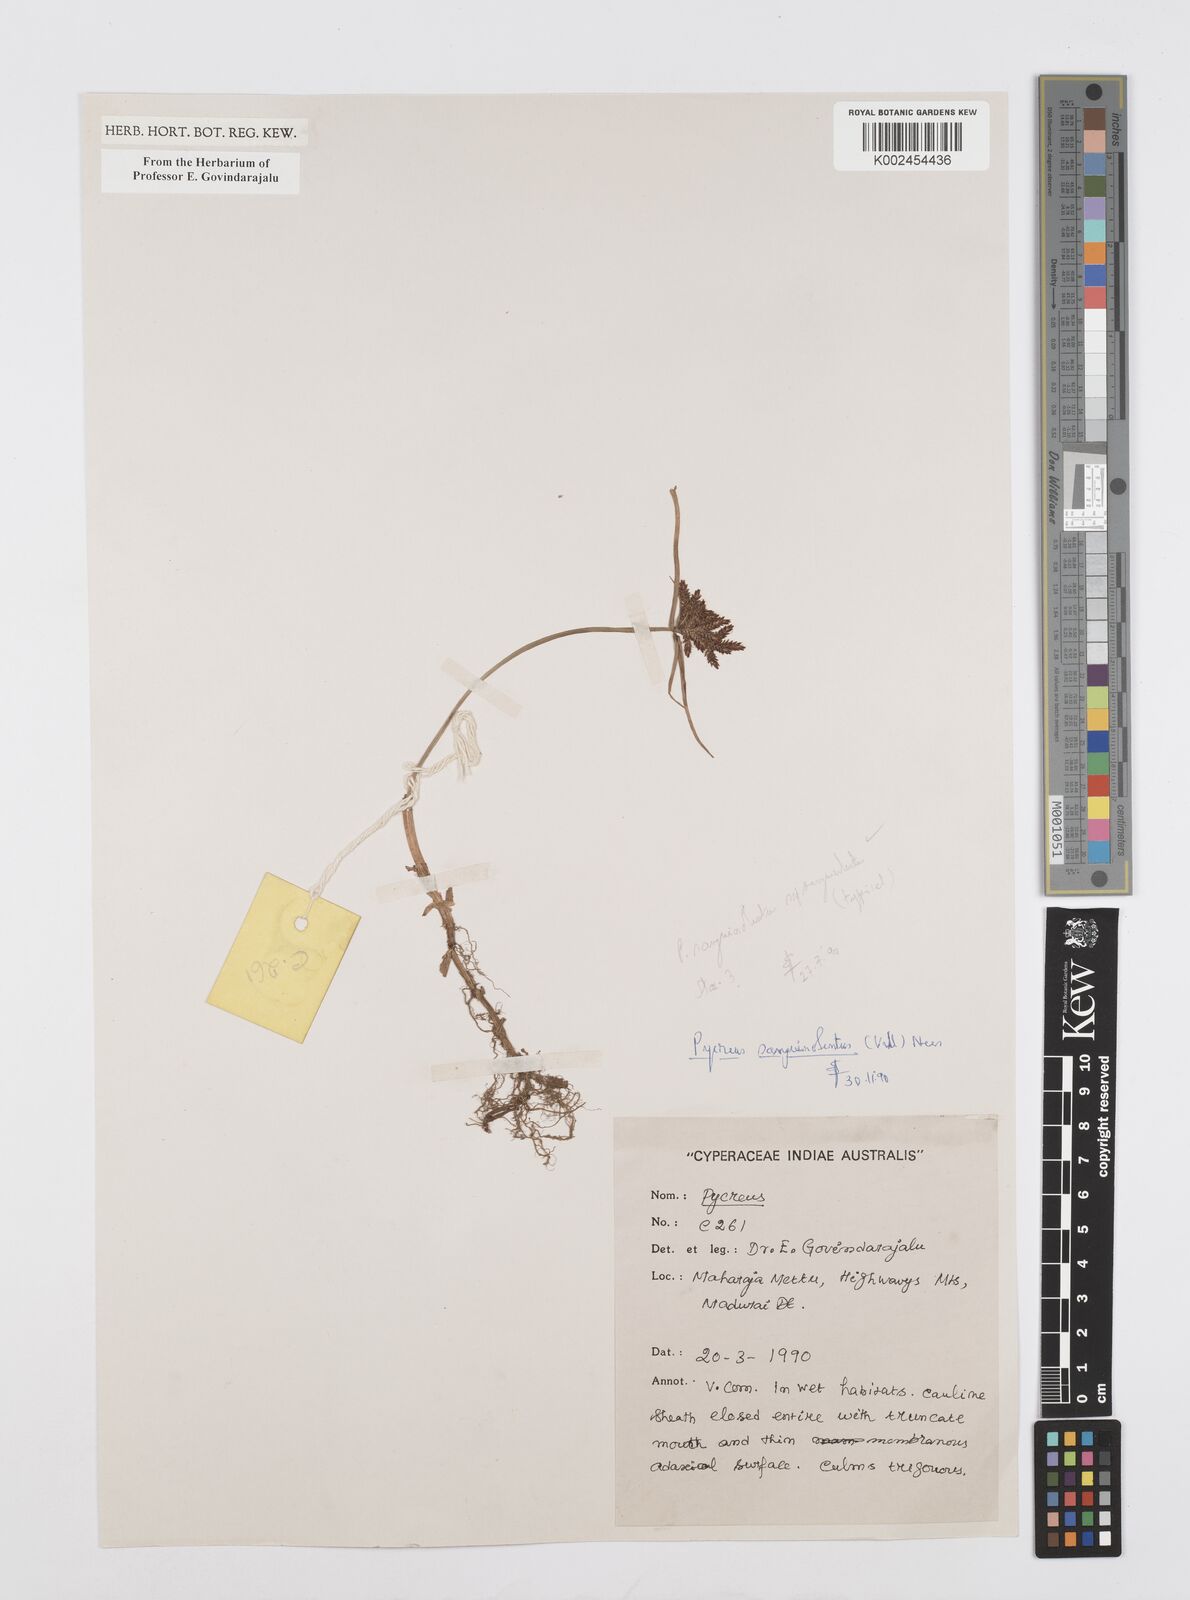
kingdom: Plantae
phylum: Tracheophyta
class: Liliopsida
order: Poales
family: Cyperaceae
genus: Cyperus
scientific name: Cyperus sanguinolentus
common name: Purpleglume flatsedge
